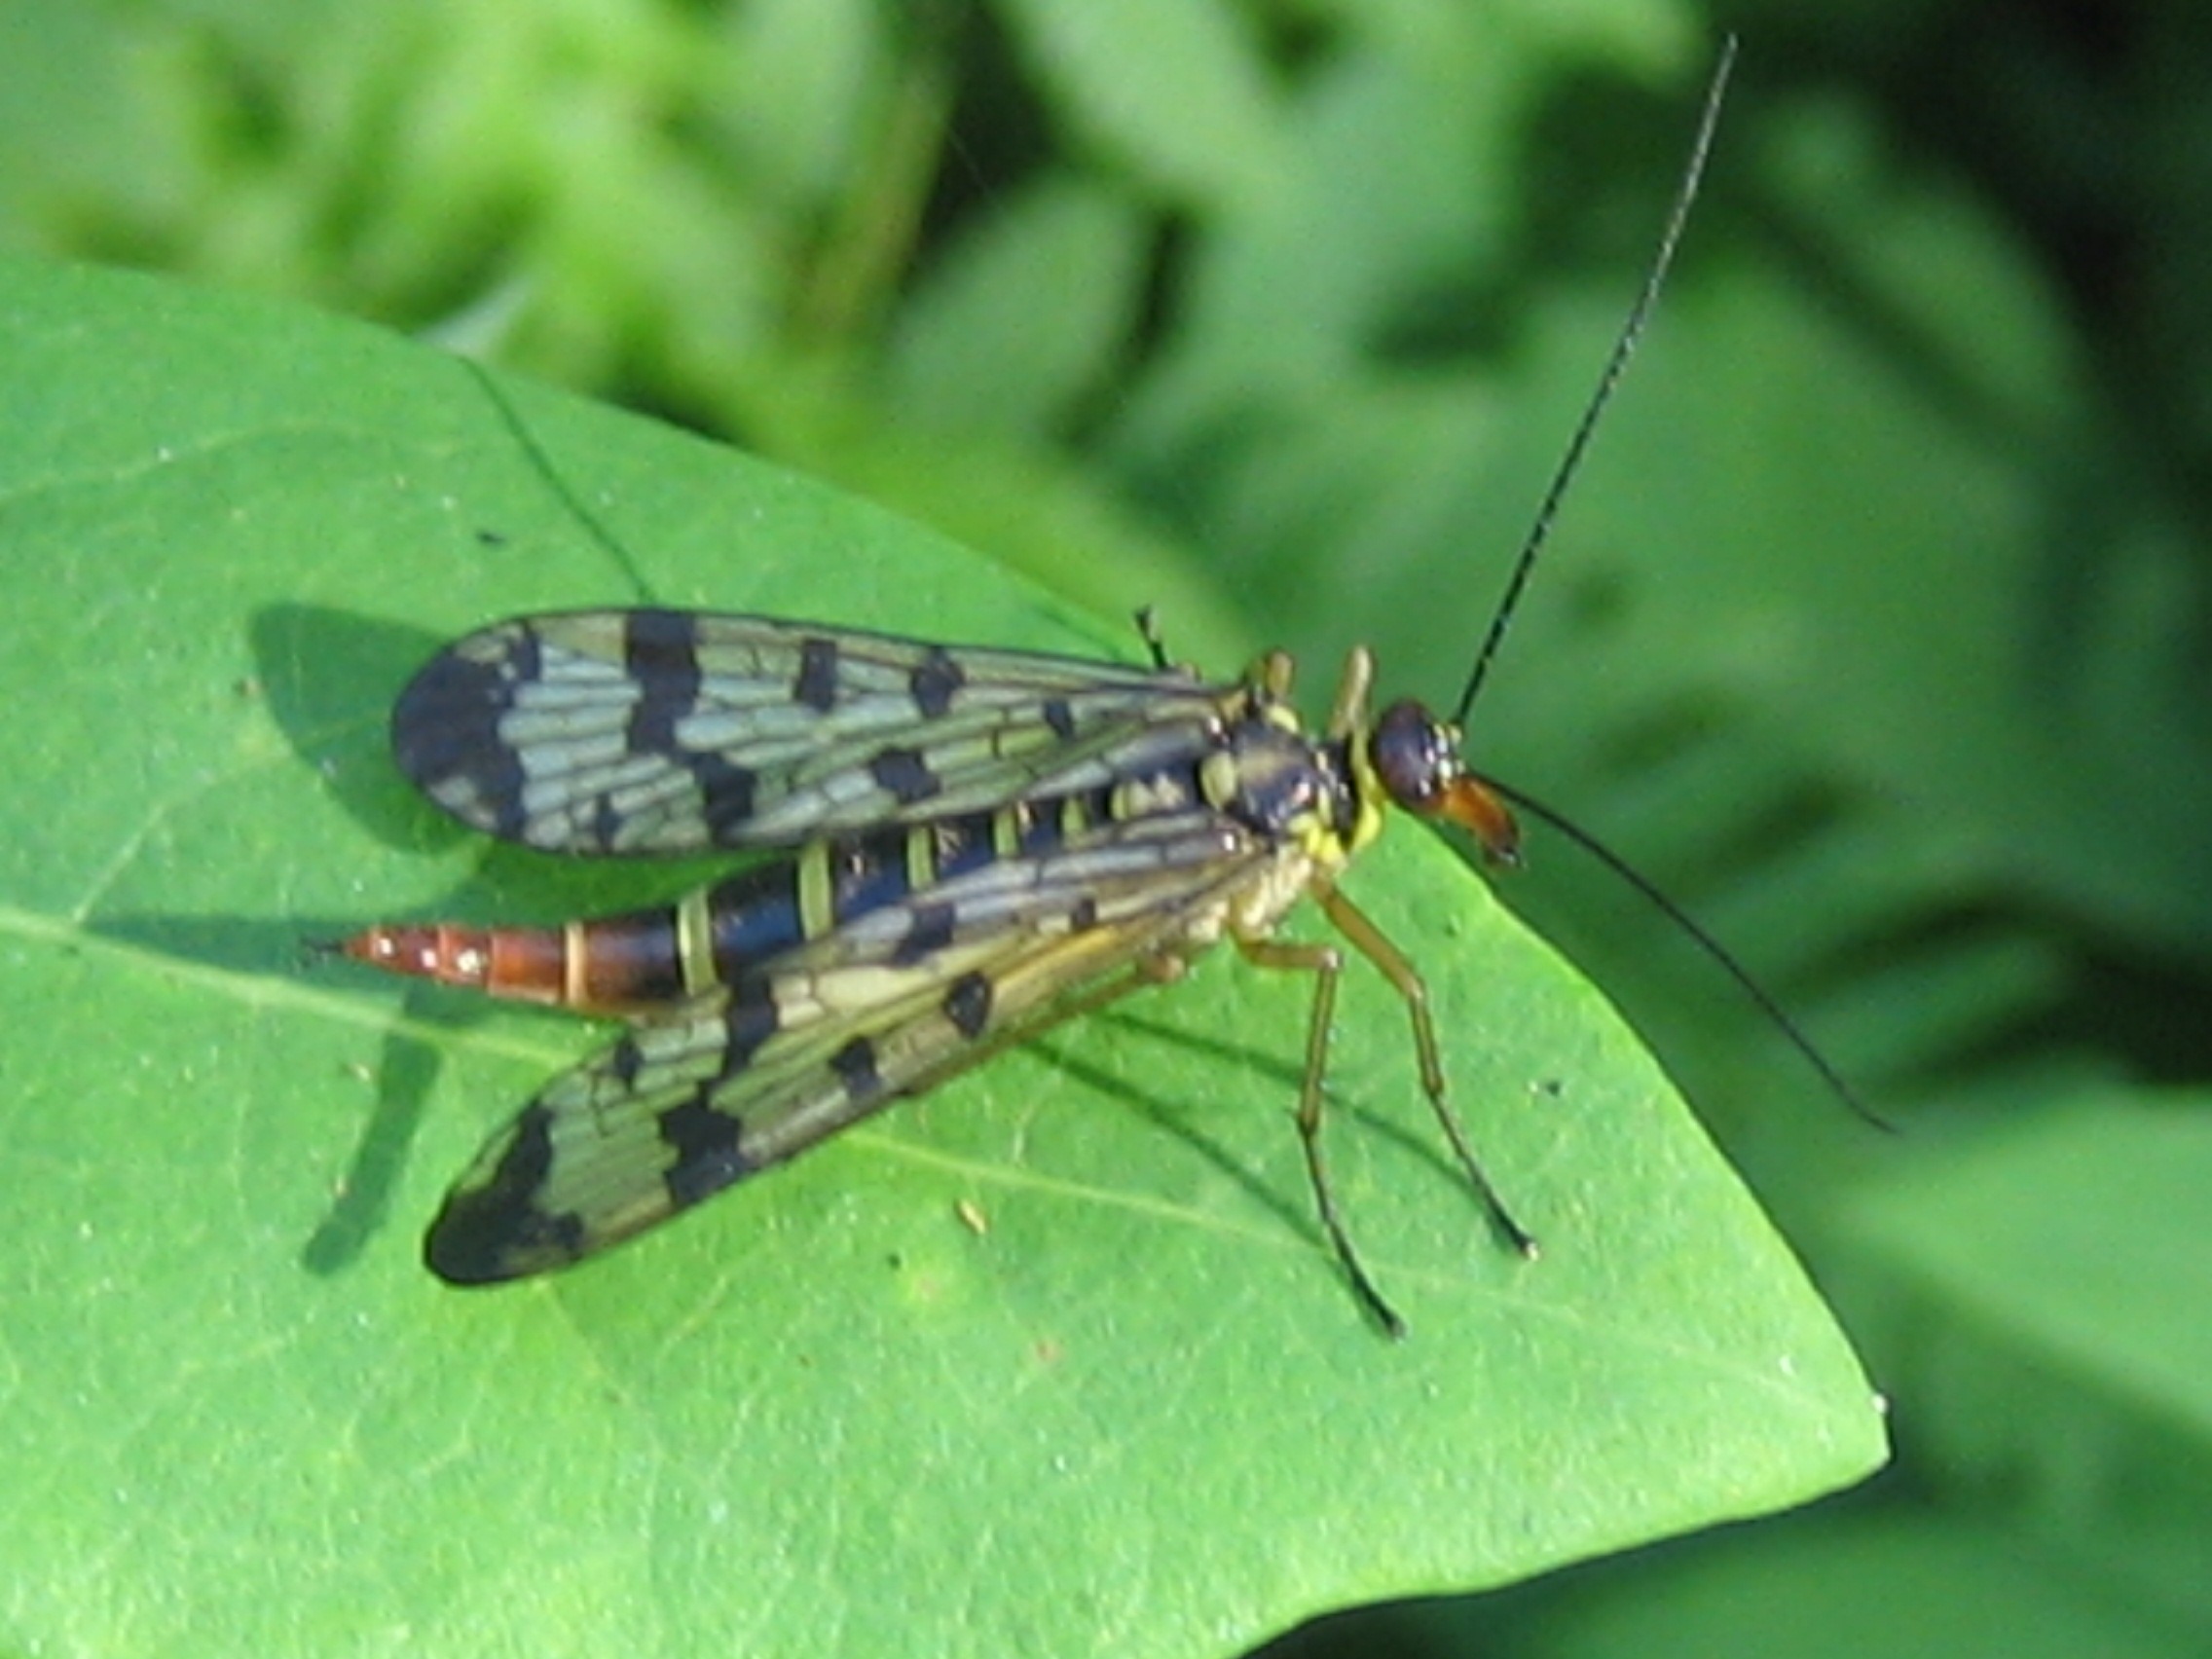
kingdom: Animalia
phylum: Arthropoda
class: Insecta
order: Mecoptera
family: Panorpidae
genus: Panorpa
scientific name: Panorpa communis
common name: Almindelig skorpionflue
